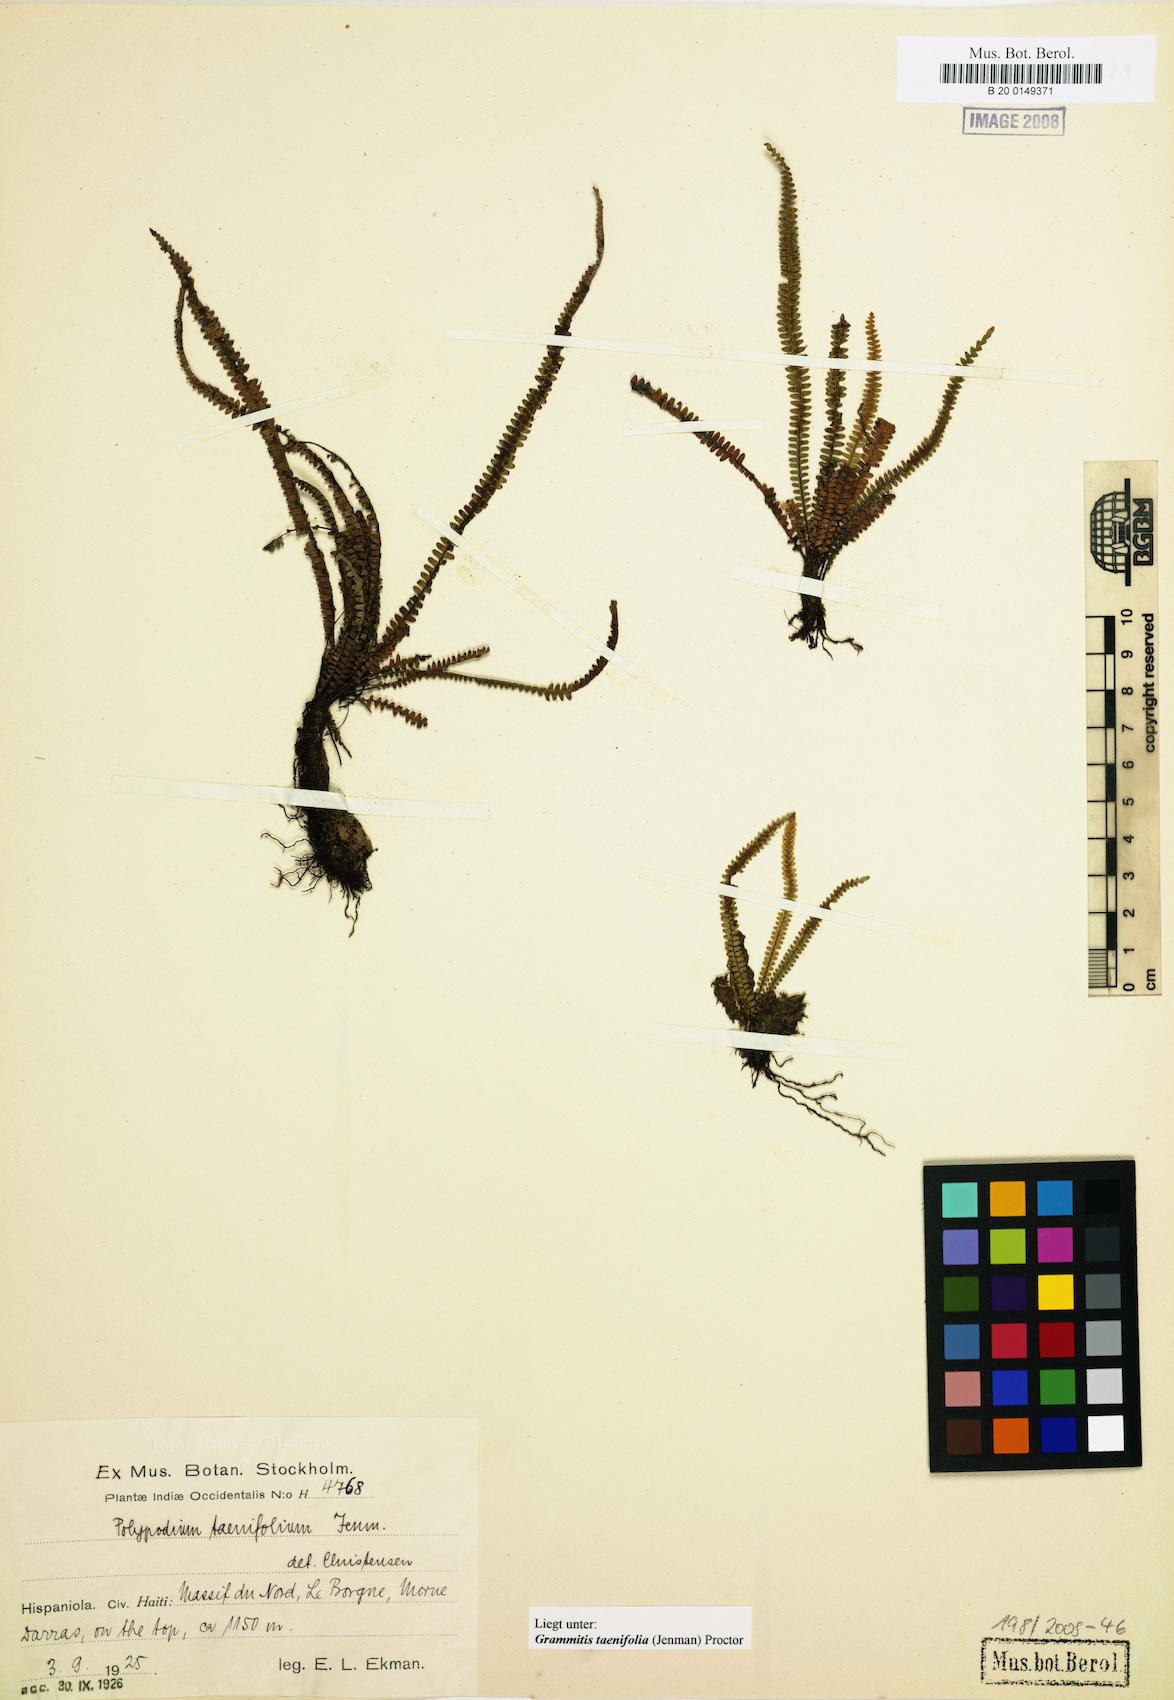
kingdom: Plantae
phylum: Tracheophyta
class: Polypodiopsida
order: Polypodiales
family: Polypodiaceae
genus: Moranopteris
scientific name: Moranopteris taenifolia
